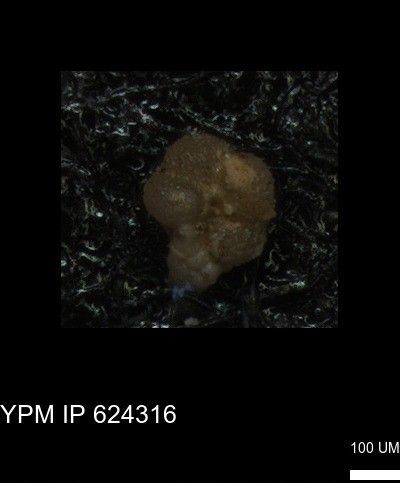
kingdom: Chromista
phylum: Foraminifera
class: Globothalamea
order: Rotaliida
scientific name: Rotaliida
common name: forams
